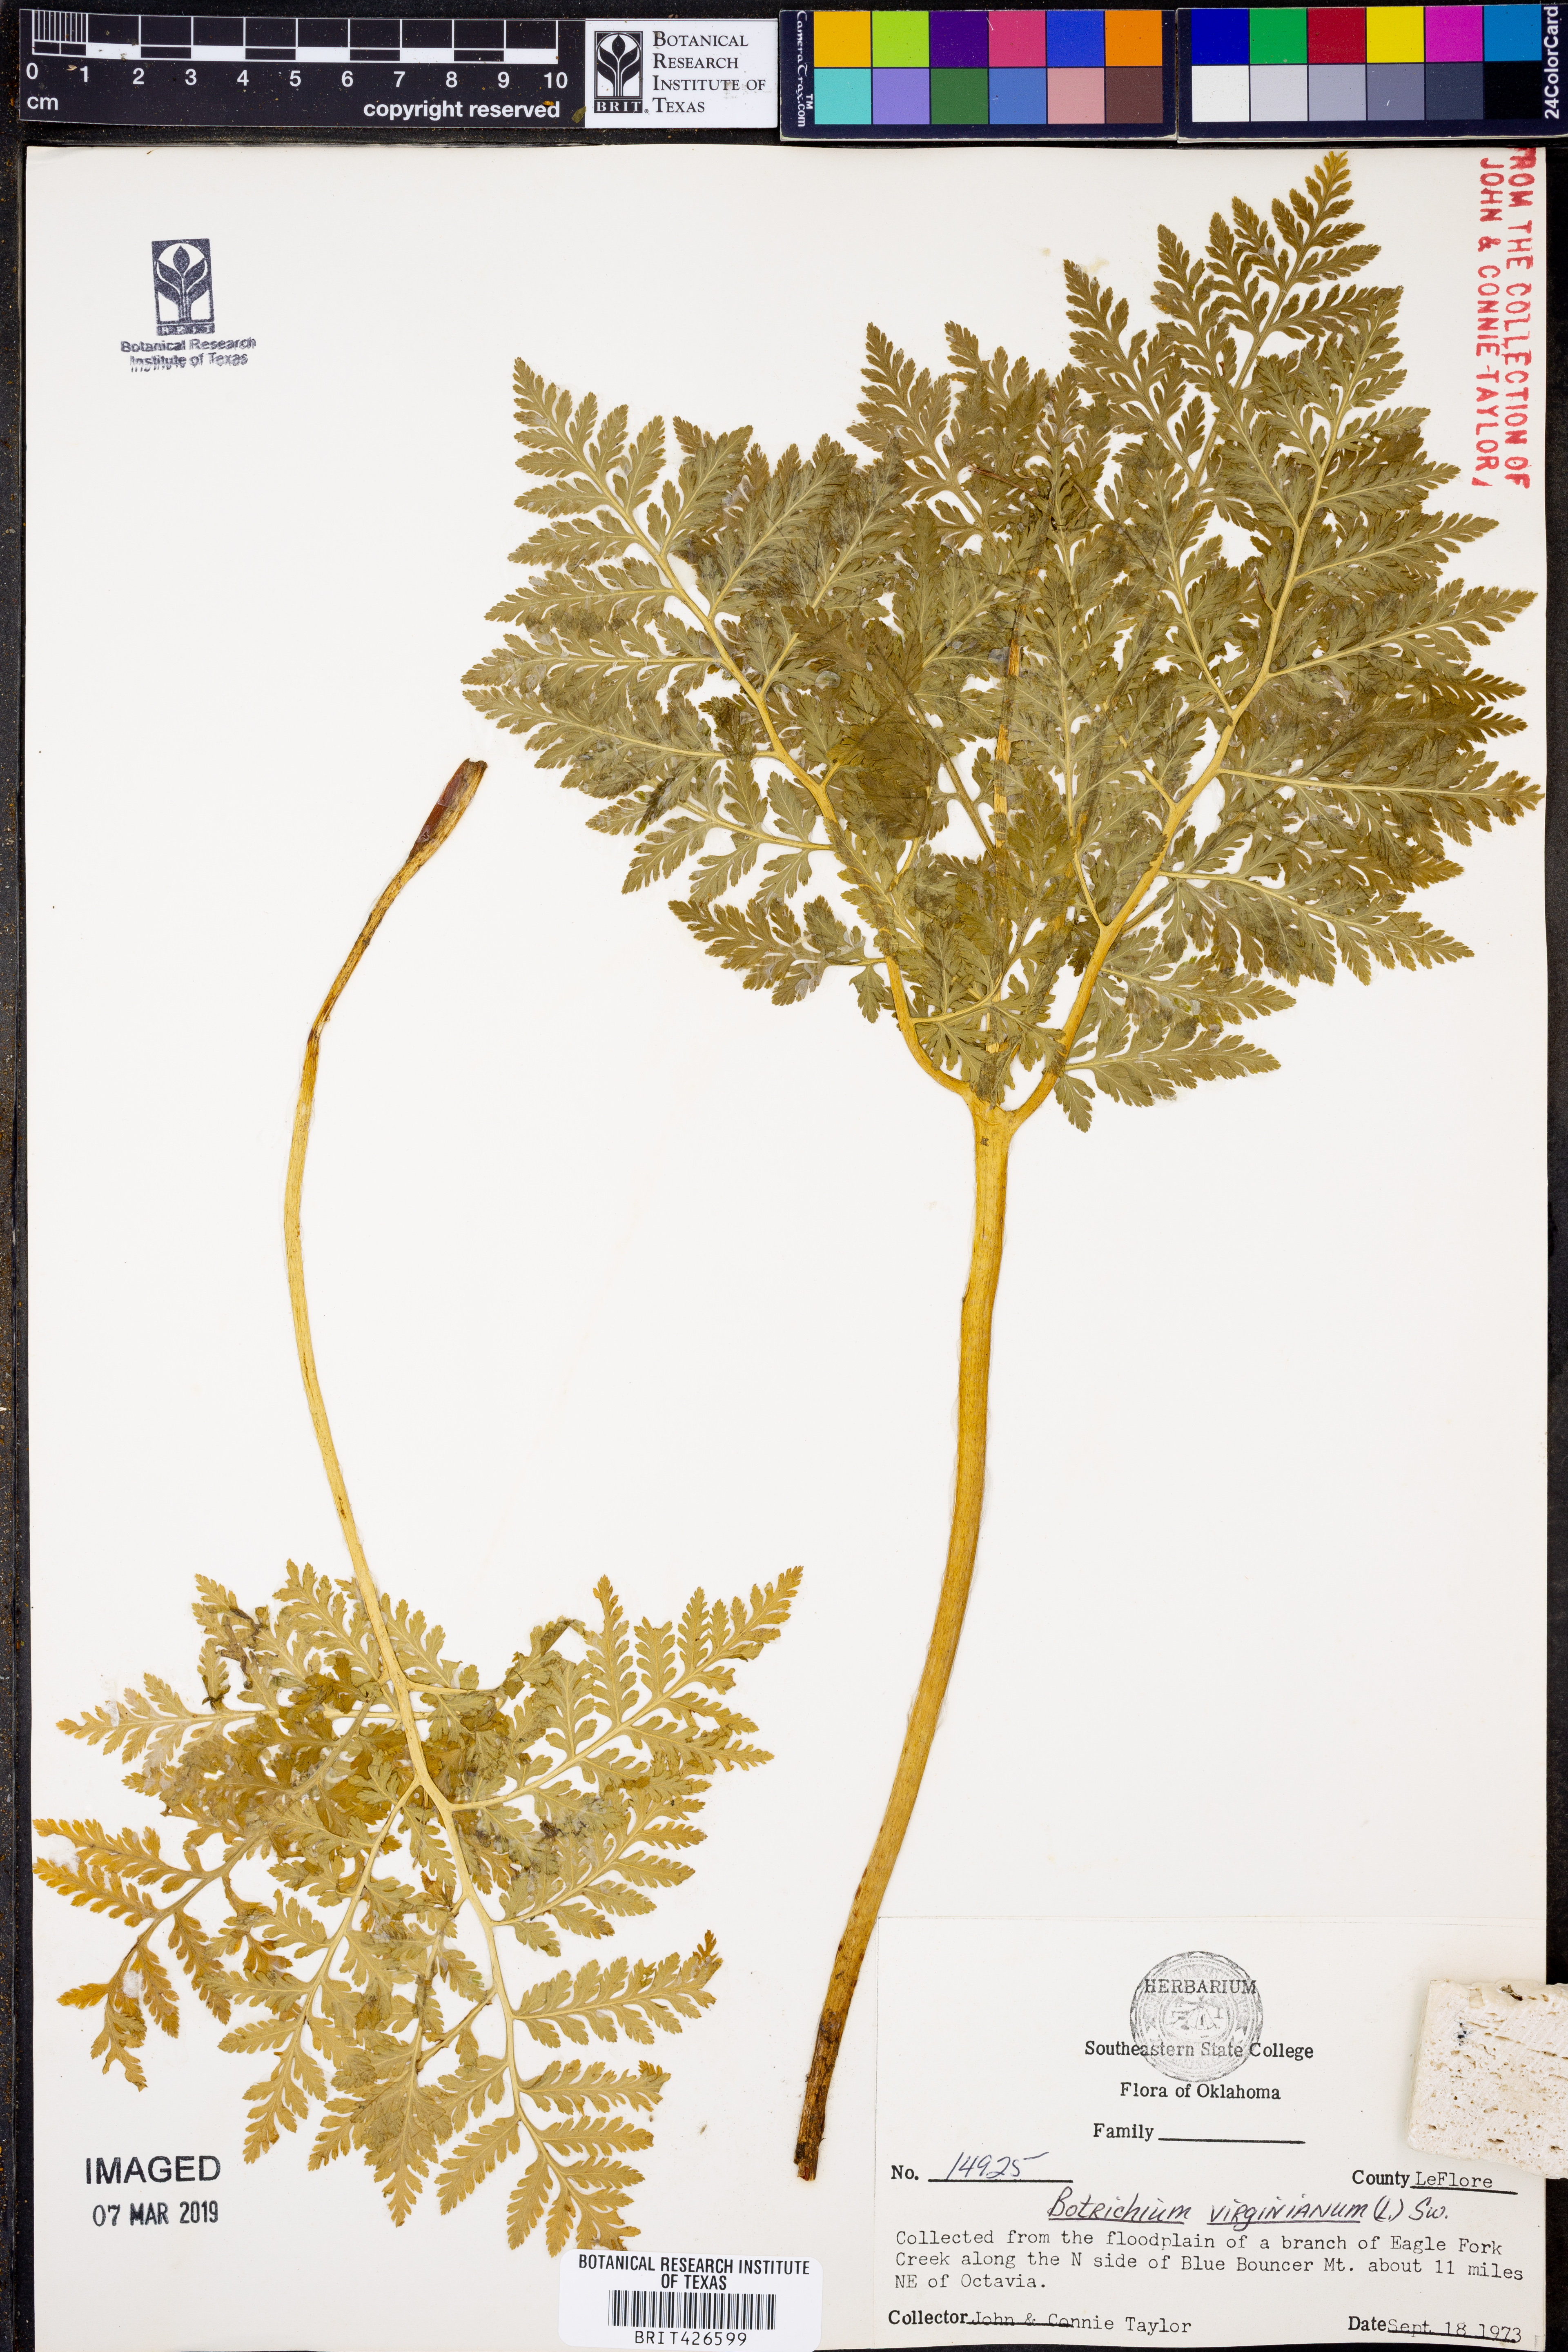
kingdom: Plantae
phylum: Tracheophyta
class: Polypodiopsida
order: Ophioglossales
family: Ophioglossaceae
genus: Botrypus
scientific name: Botrypus virginianus
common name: Common grapefern
